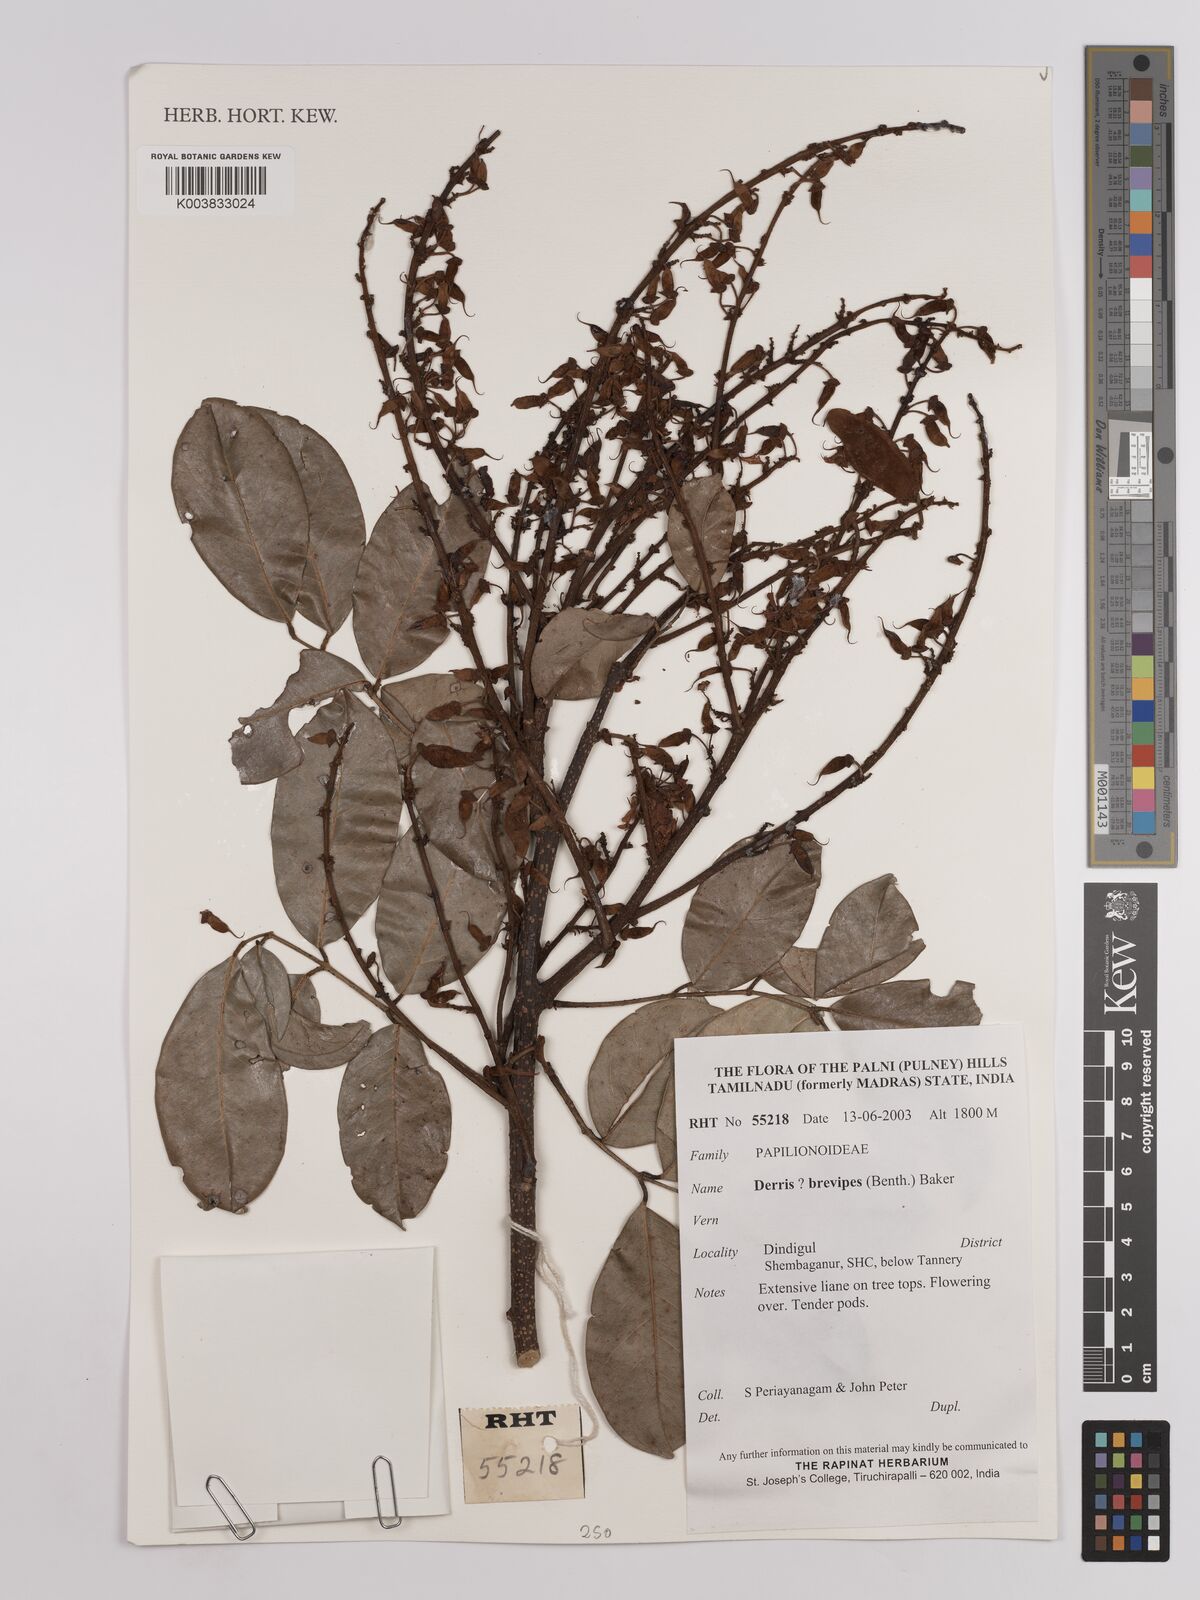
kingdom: Plantae
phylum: Tracheophyta
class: Magnoliopsida
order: Fabales
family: Fabaceae
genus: Derris
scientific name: Derris brevipes
